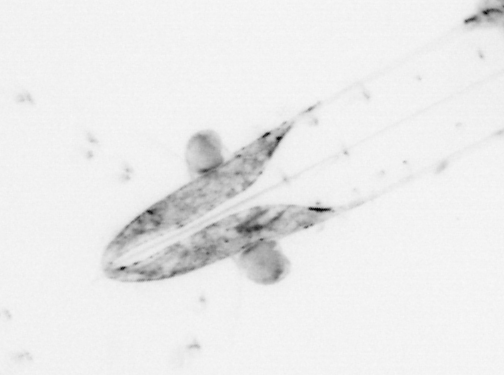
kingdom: Animalia
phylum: Chaetognatha
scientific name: Chaetognatha
